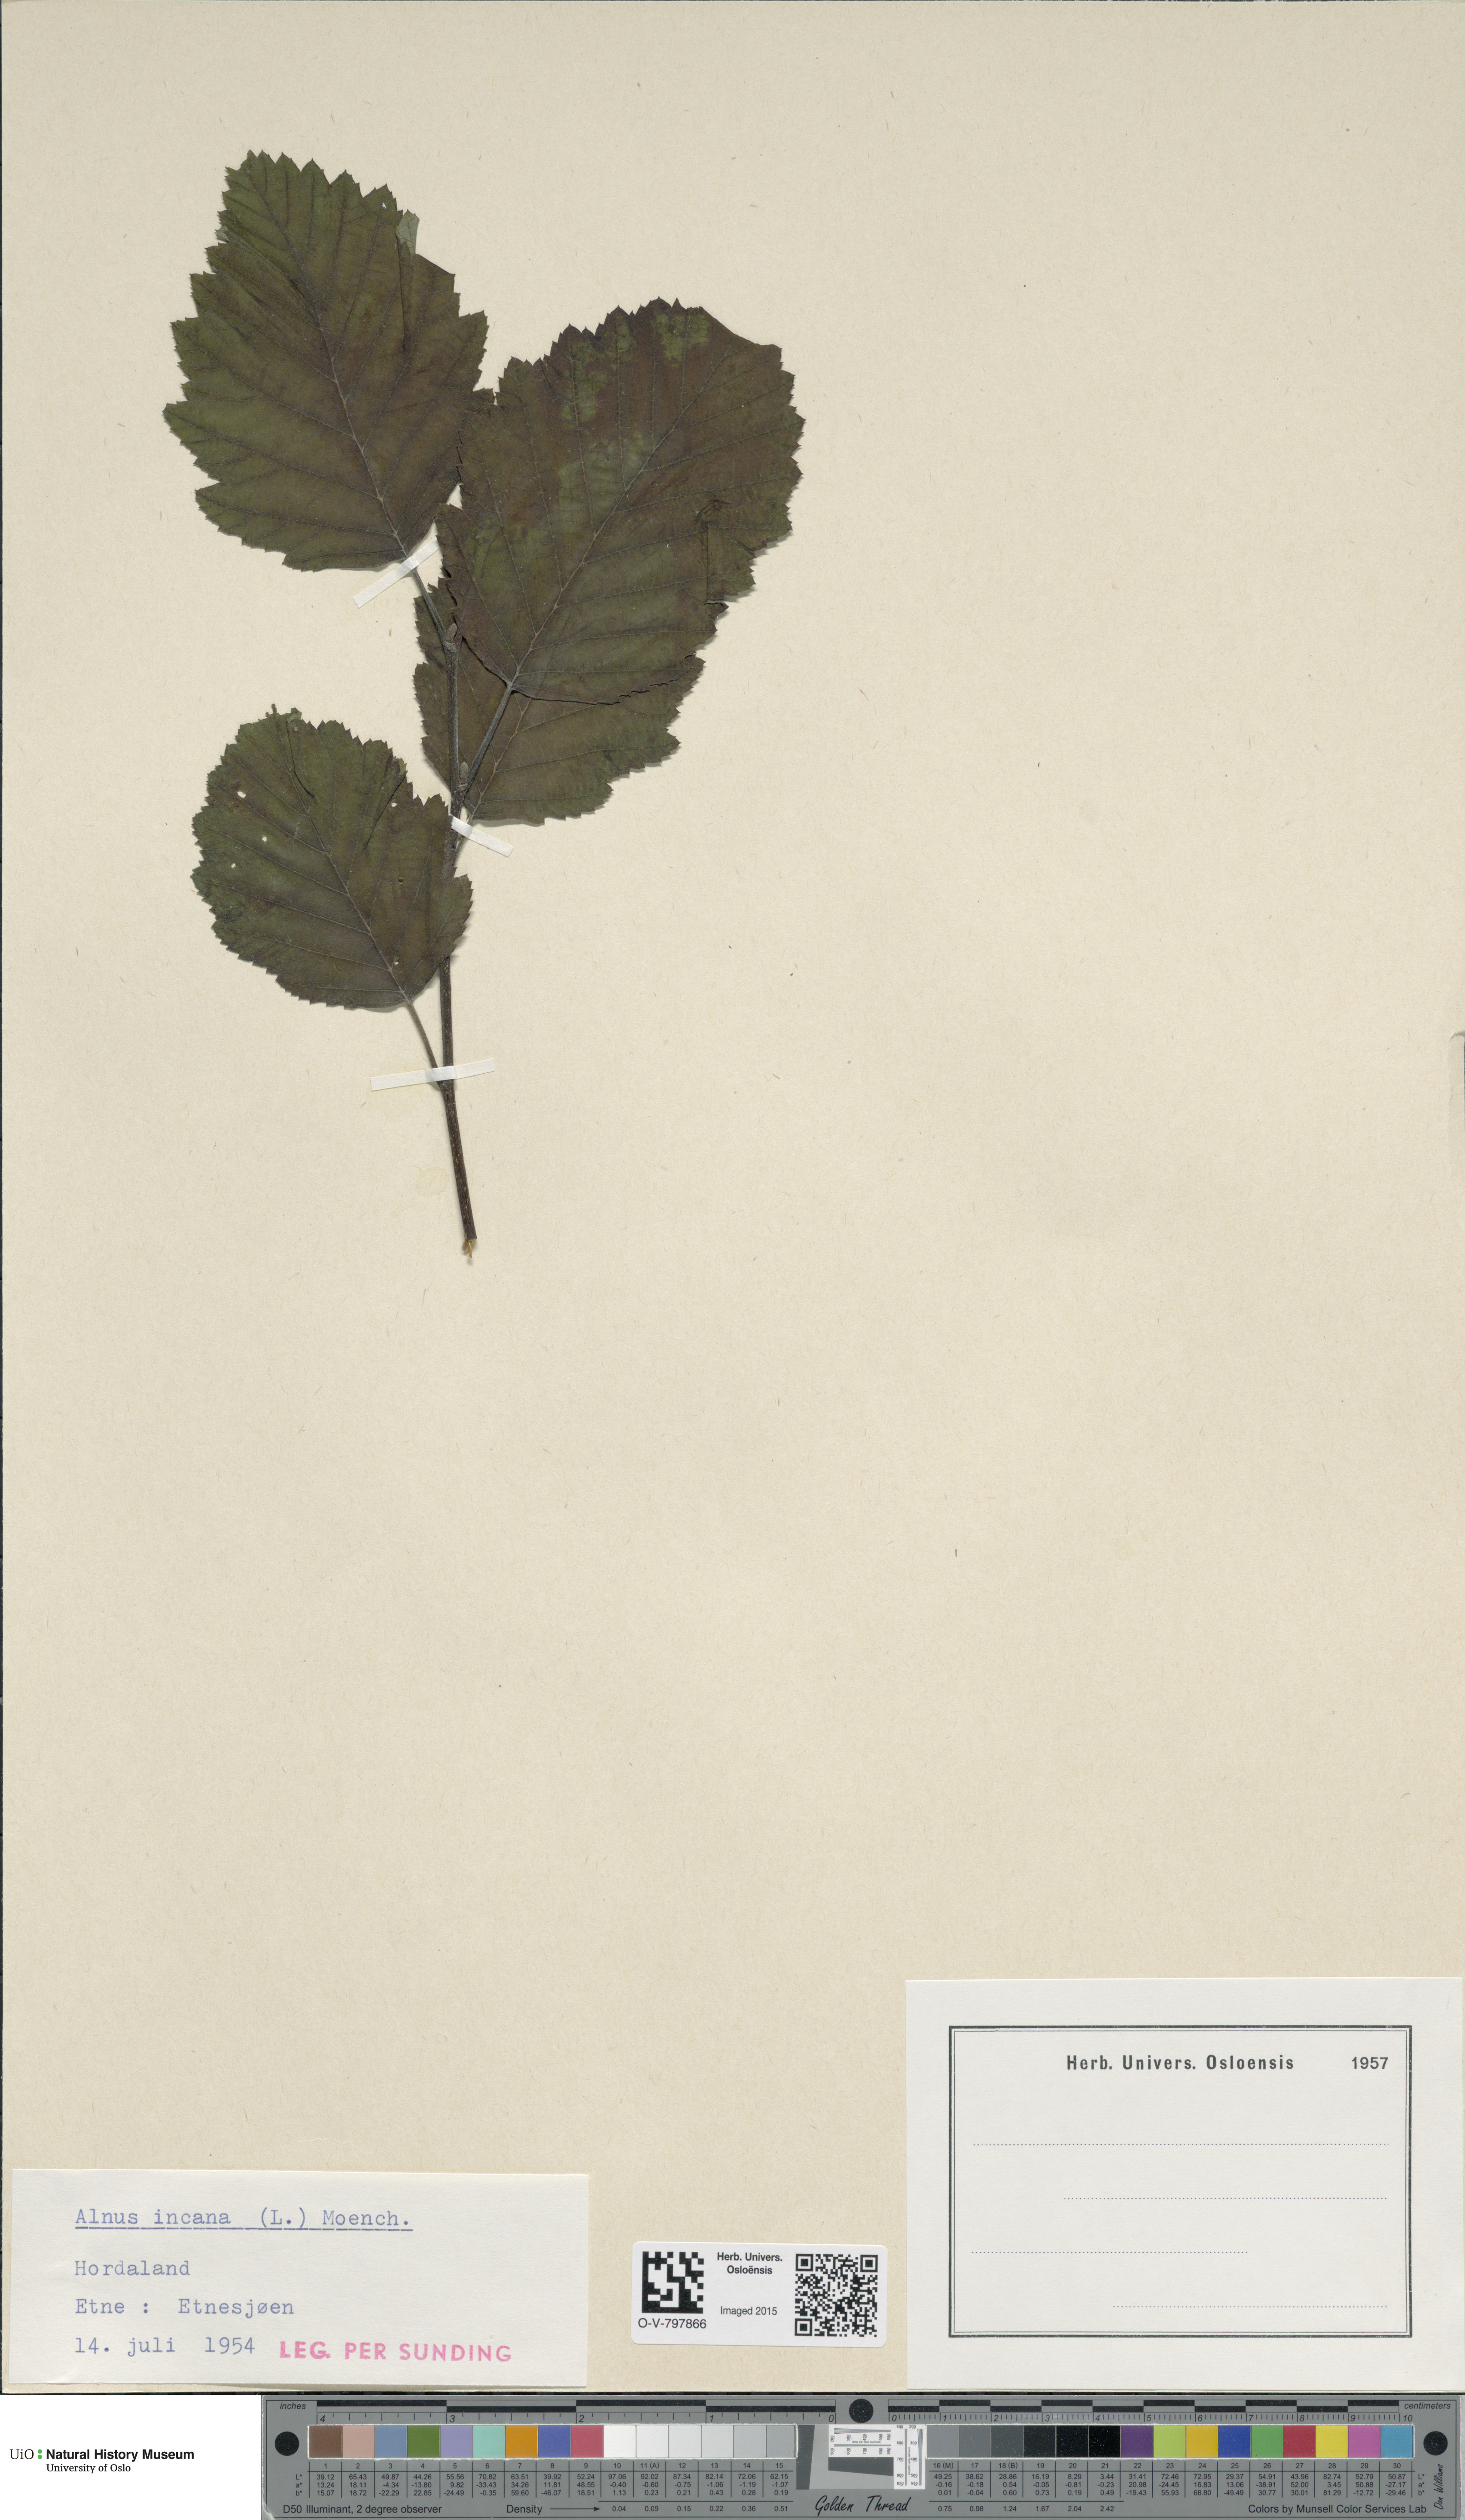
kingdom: Plantae
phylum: Tracheophyta
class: Magnoliopsida
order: Fagales
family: Betulaceae
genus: Alnus
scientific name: Alnus incana
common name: Grey alder
